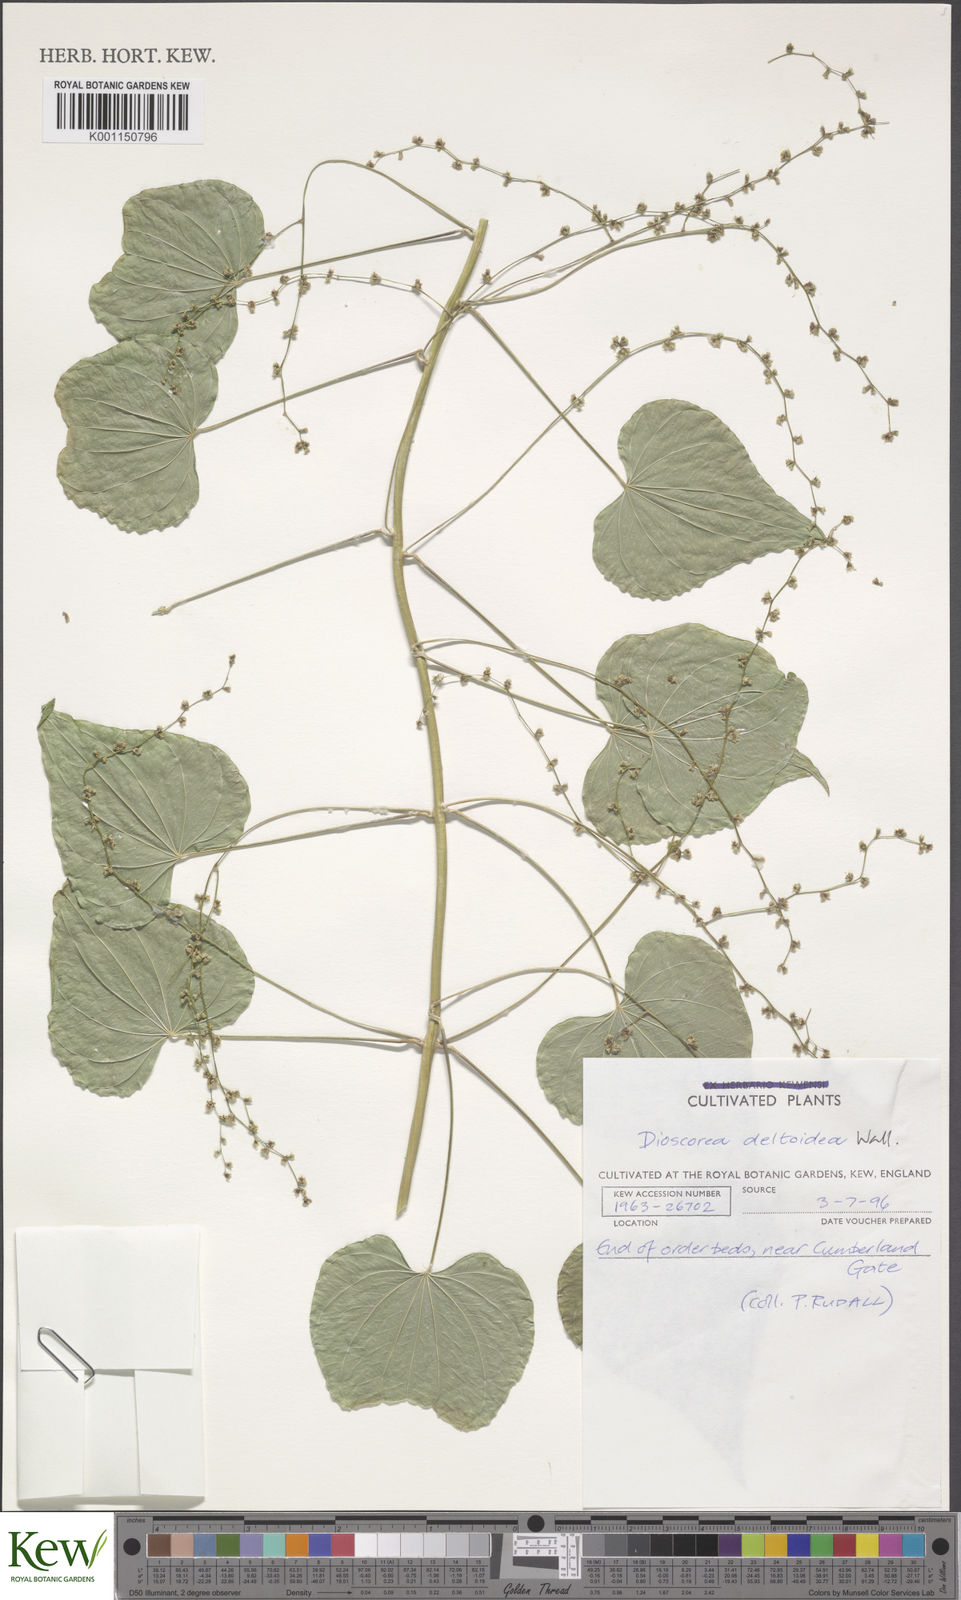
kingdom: Plantae
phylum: Tracheophyta
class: Liliopsida
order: Dioscoreales
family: Dioscoreaceae
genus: Dioscorea
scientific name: Dioscorea deltoidea
